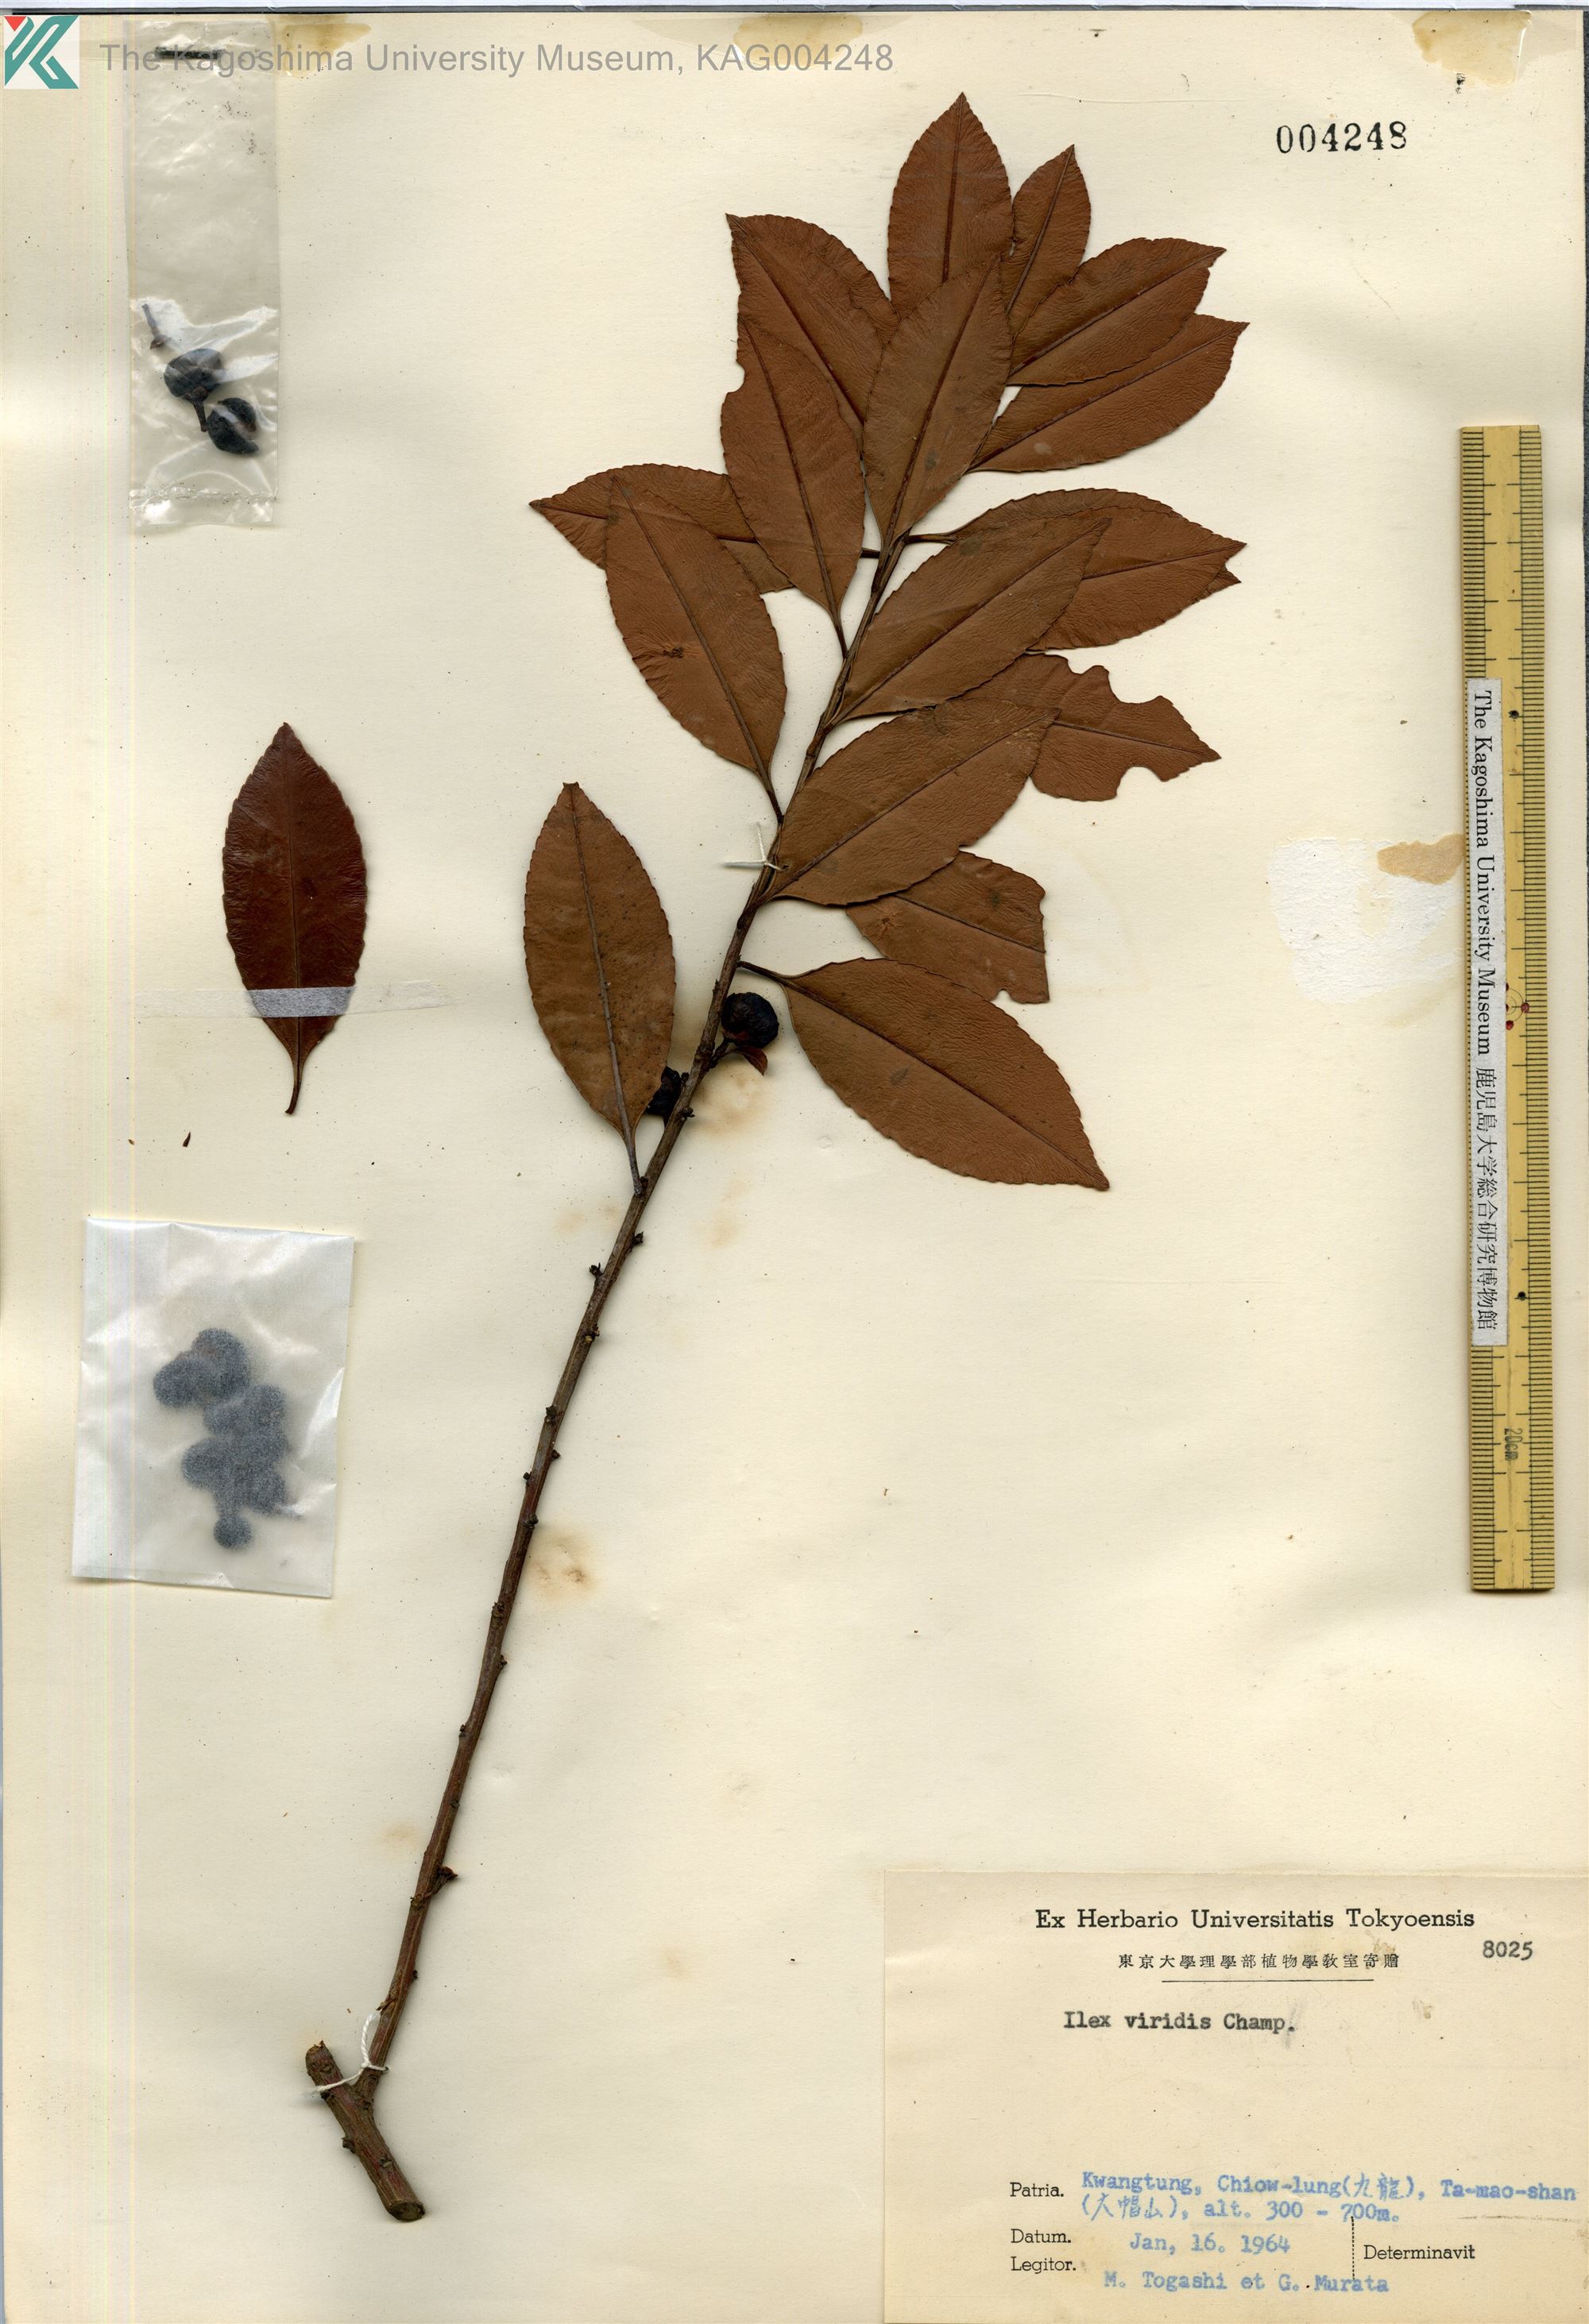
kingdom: Plantae
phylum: Tracheophyta
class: Magnoliopsida
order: Aquifoliales
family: Aquifoliaceae
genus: Ilex
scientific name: Ilex viridis
